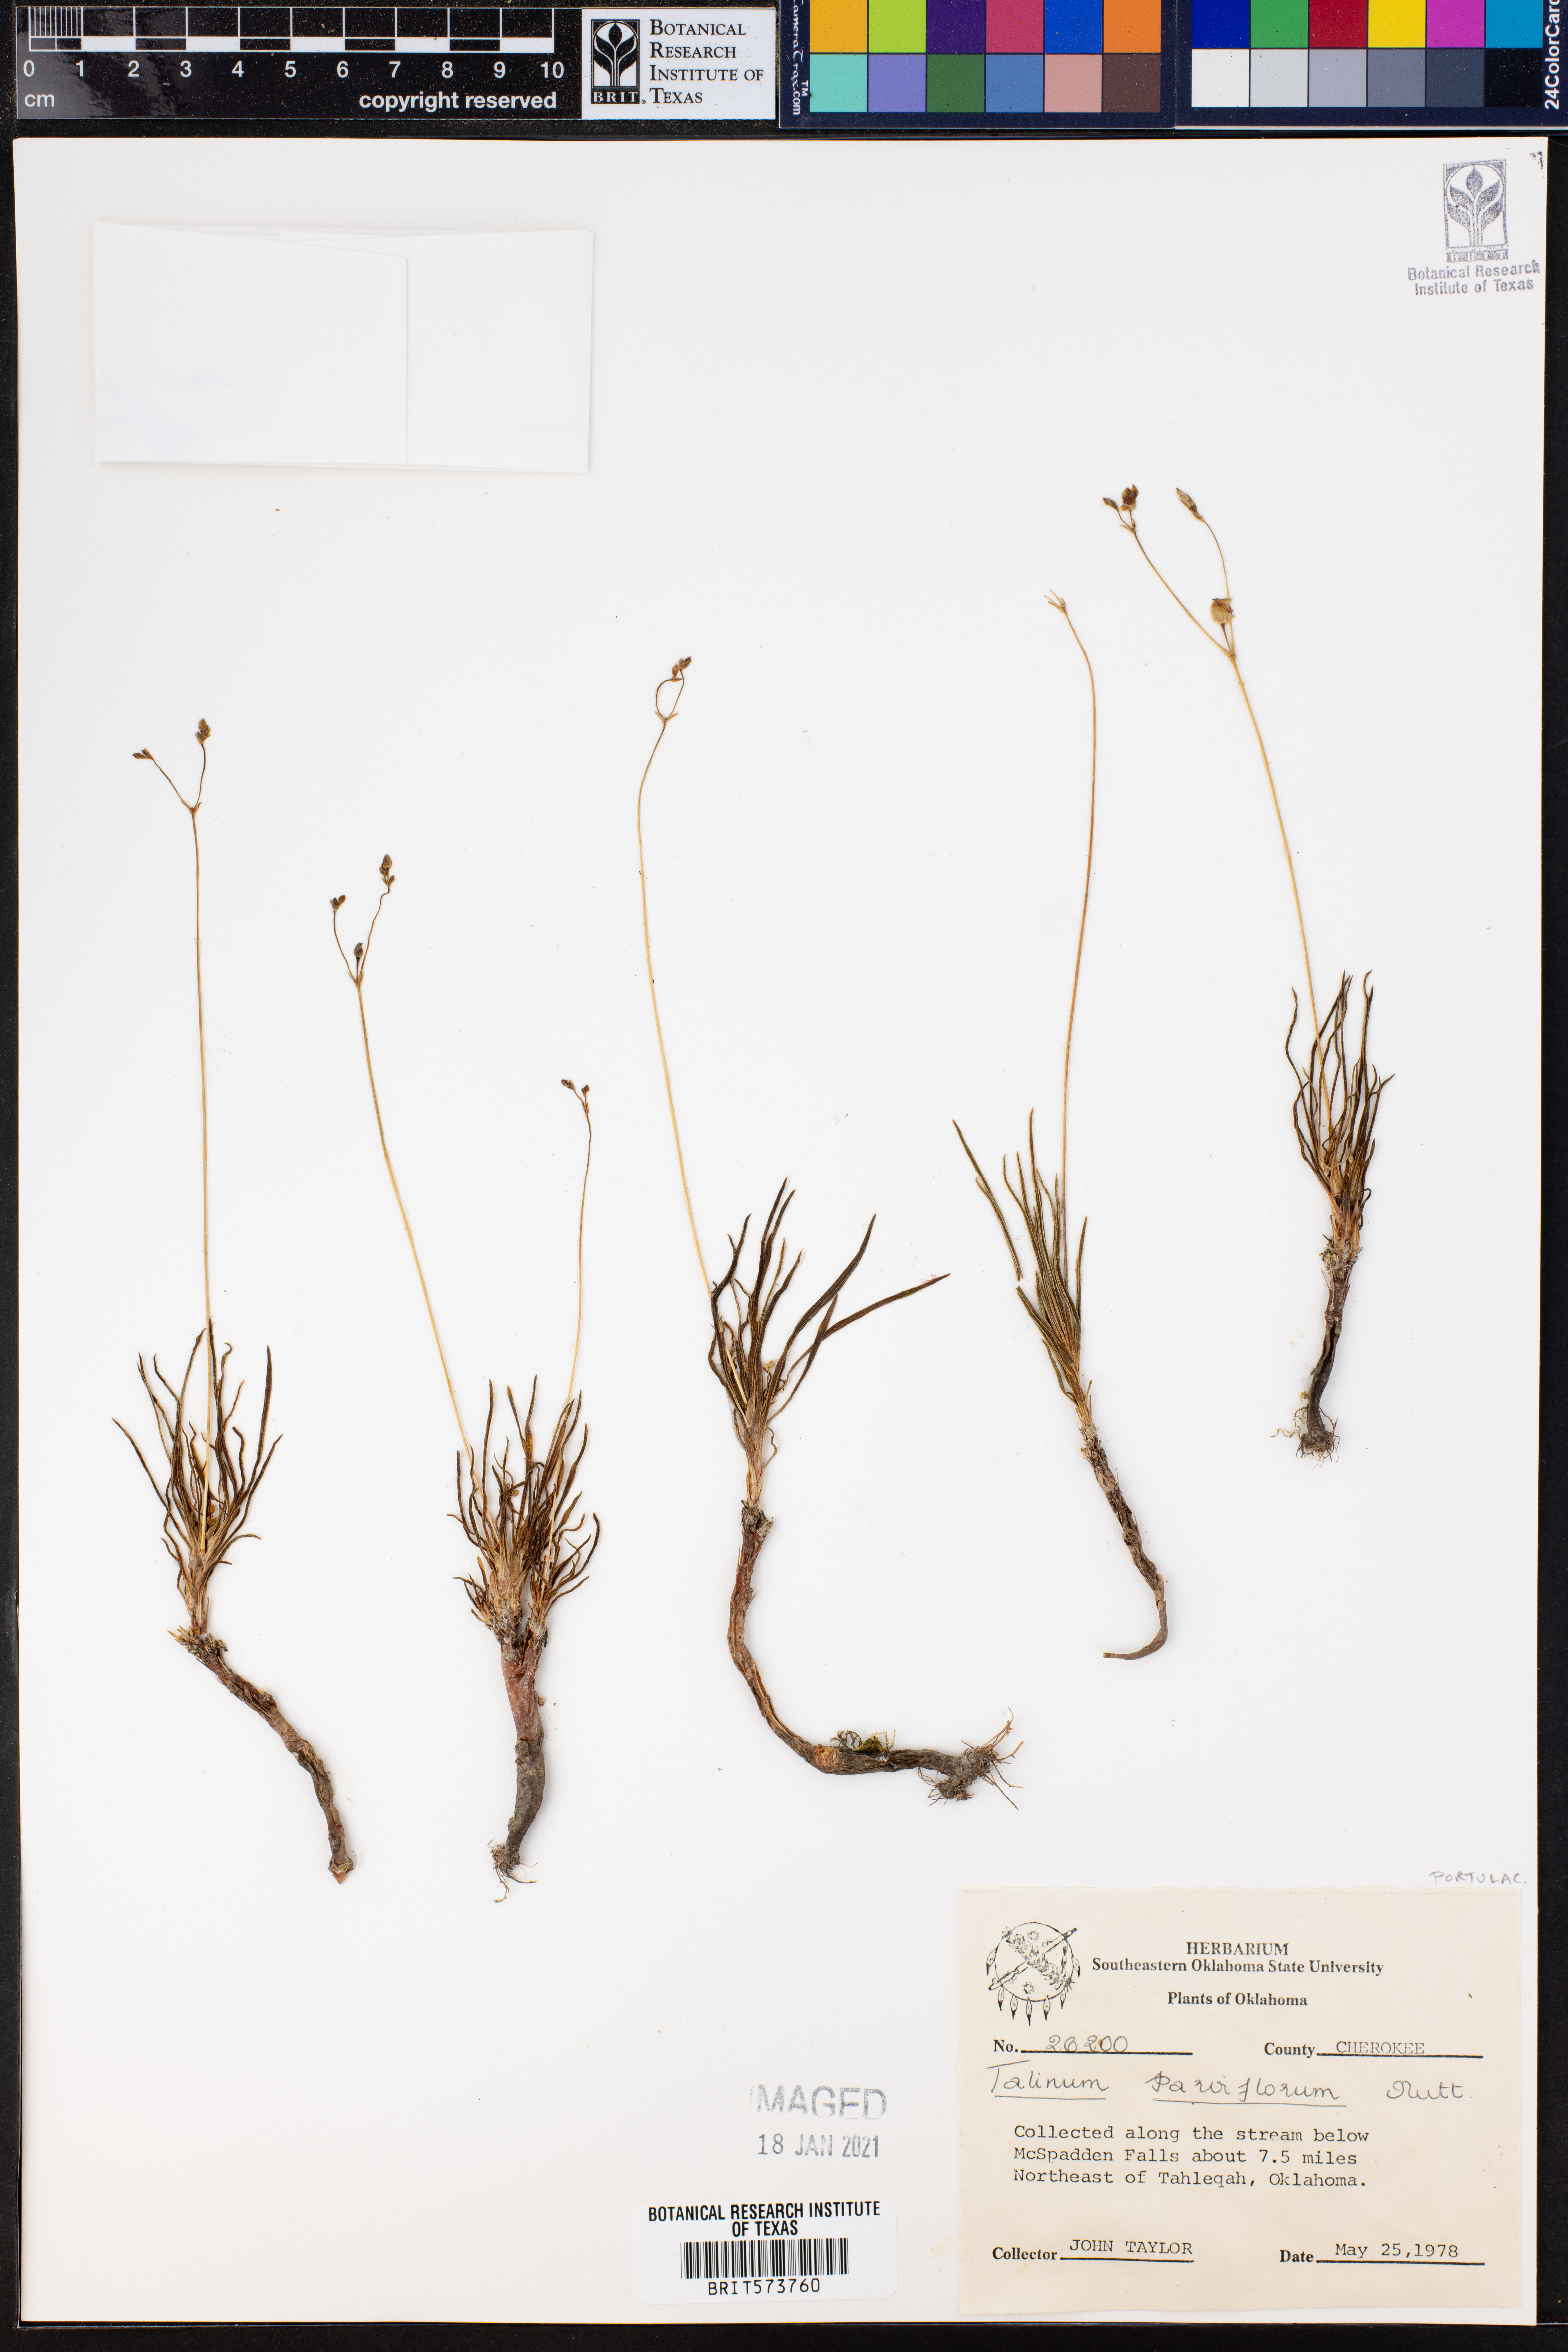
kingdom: Plantae
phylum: Tracheophyta
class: Magnoliopsida
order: Caryophyllales
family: Montiaceae
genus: Phemeranthus
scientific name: Phemeranthus parviflorus
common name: Sunbright
